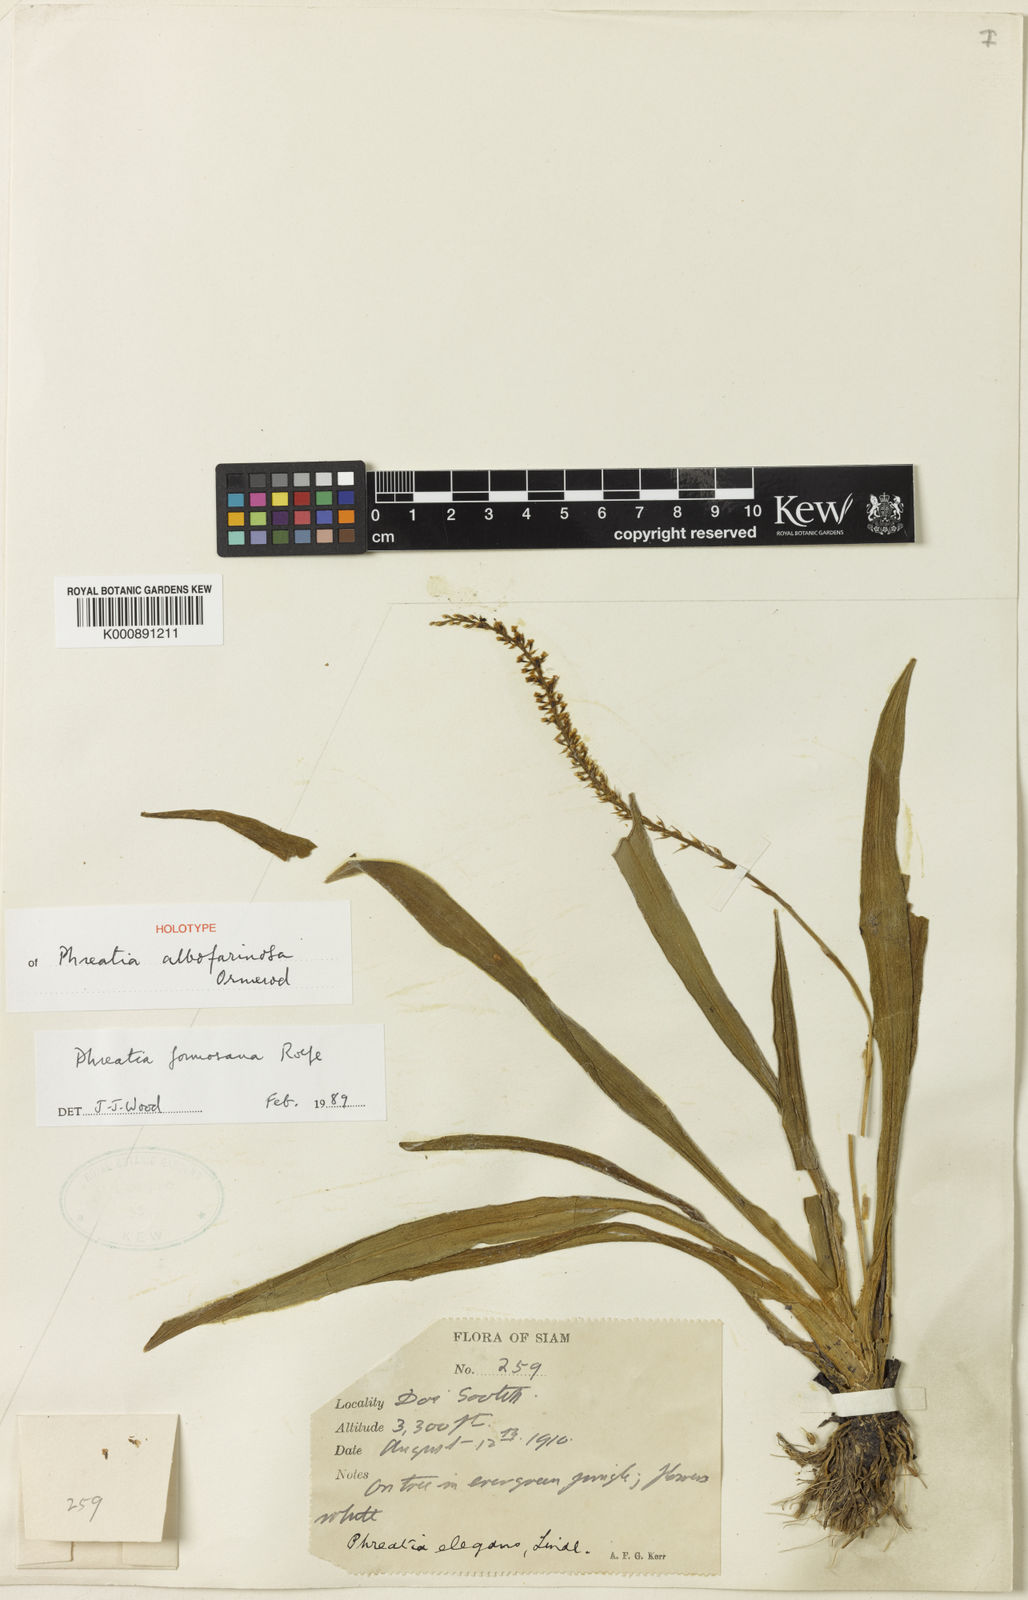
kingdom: Plantae
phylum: Tracheophyta
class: Liliopsida
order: Asparagales
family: Orchidaceae
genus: Phreatia
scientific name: Phreatia albofarinosa
